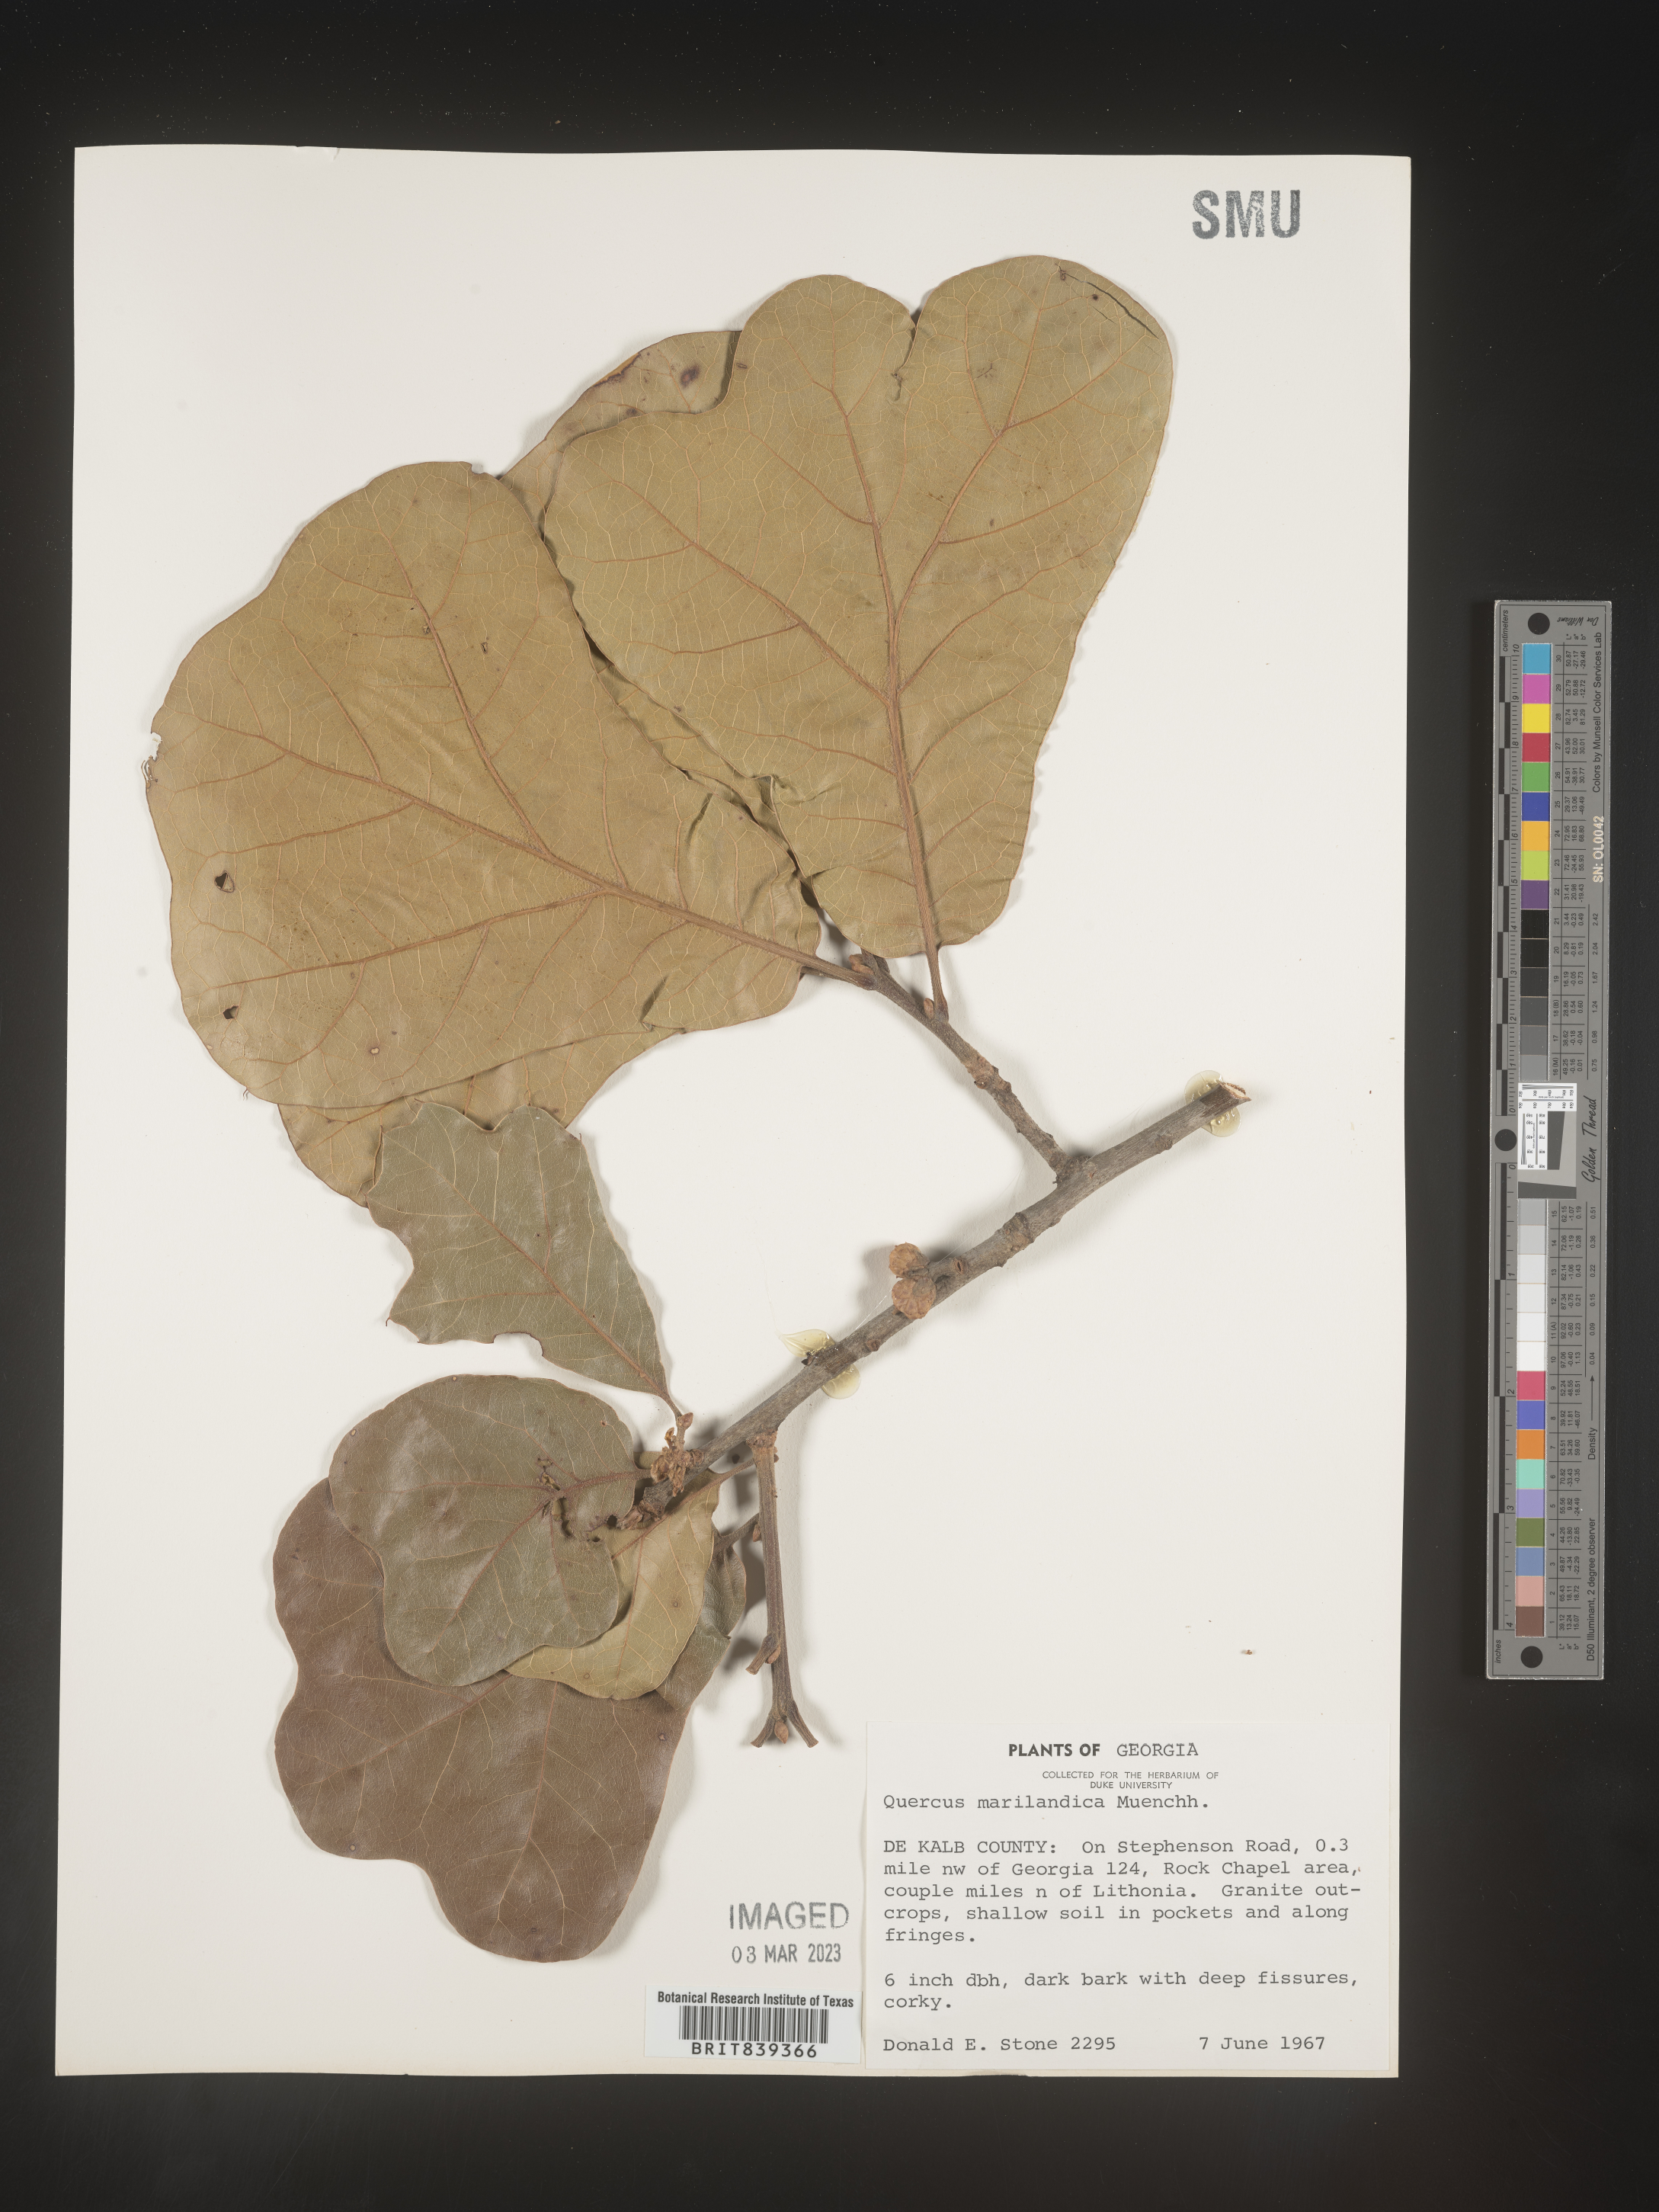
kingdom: Plantae
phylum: Tracheophyta
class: Magnoliopsida
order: Fagales
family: Fagaceae
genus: Quercus
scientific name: Quercus marilandica
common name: Blackjack oak
